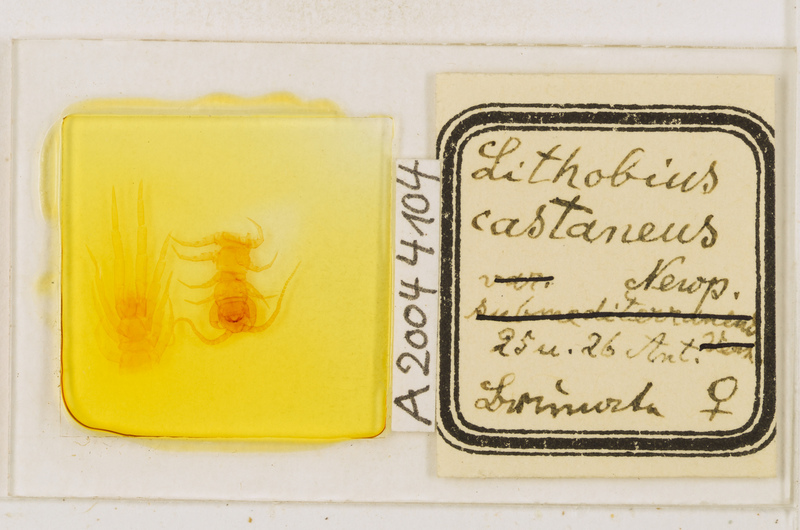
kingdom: Animalia
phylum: Arthropoda
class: Chilopoda
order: Lithobiomorpha
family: Lithobiidae
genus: Lithobius
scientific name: Lithobius castaneus
